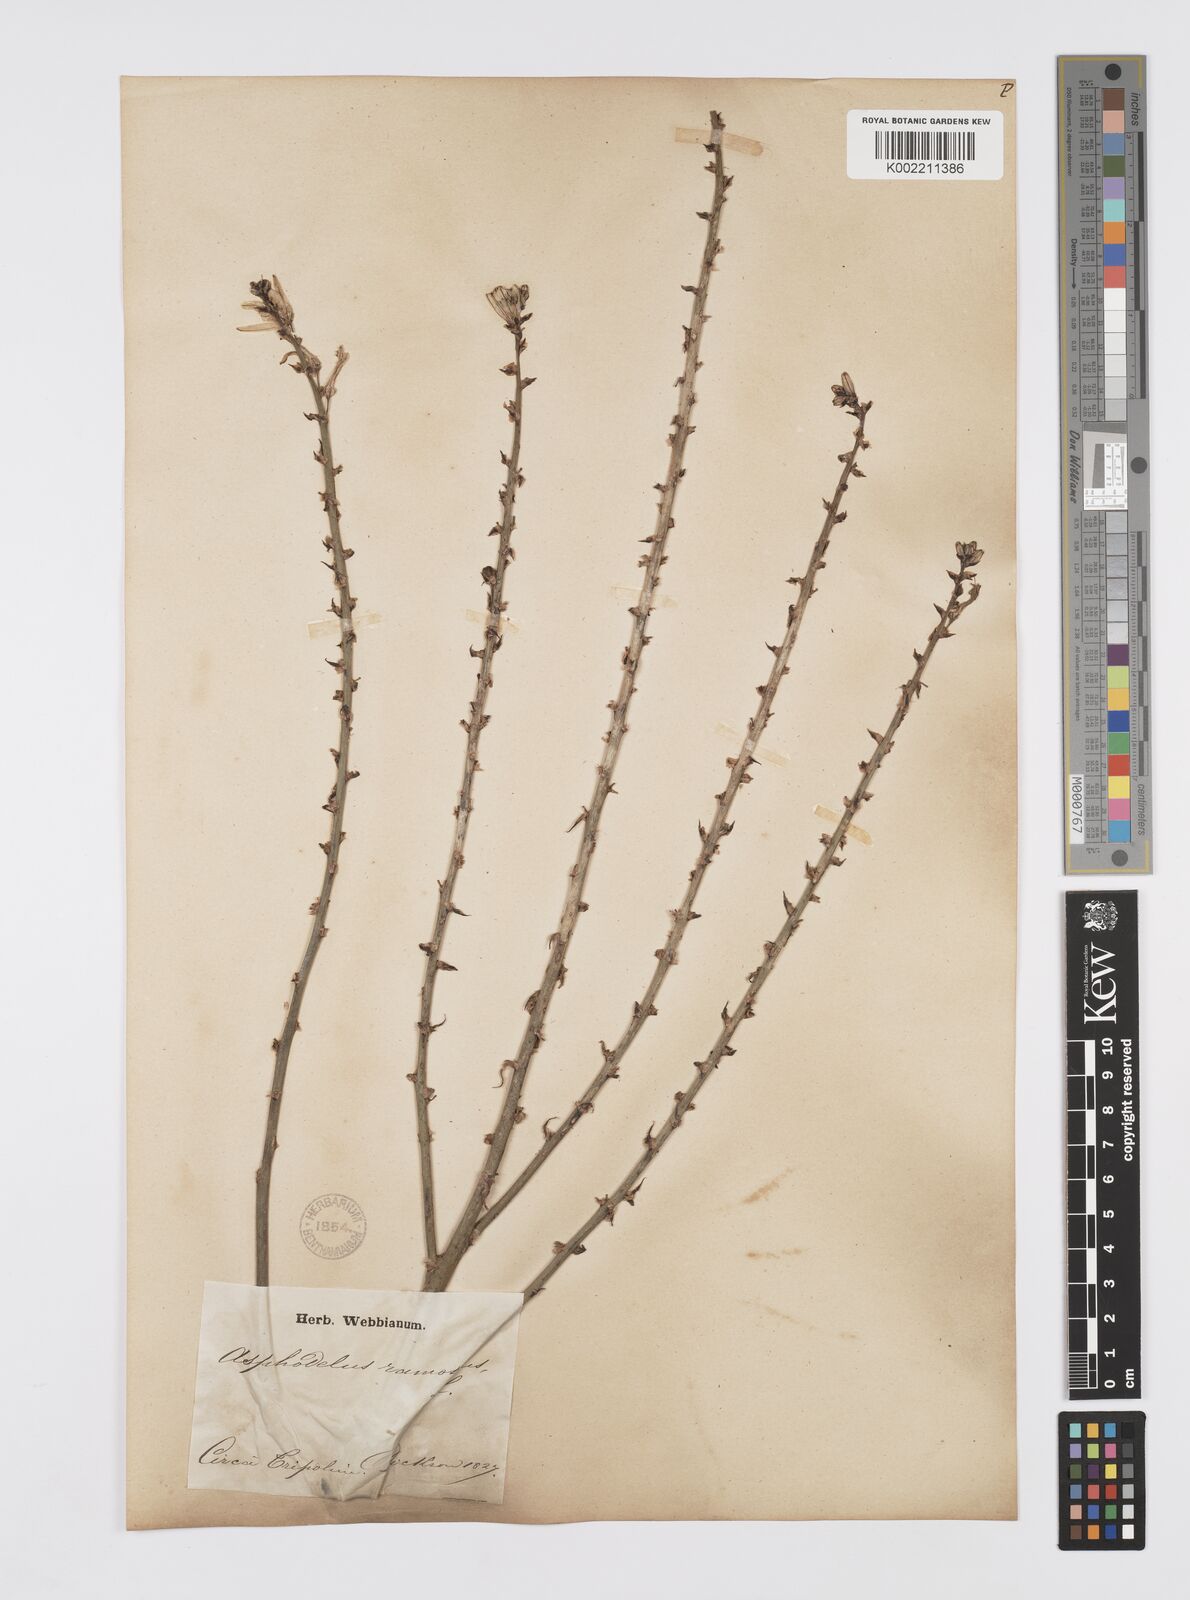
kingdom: Plantae
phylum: Tracheophyta
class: Liliopsida
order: Asparagales
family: Asphodelaceae
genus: Asphodelus
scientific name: Asphodelus ramosus
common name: Silverrod
